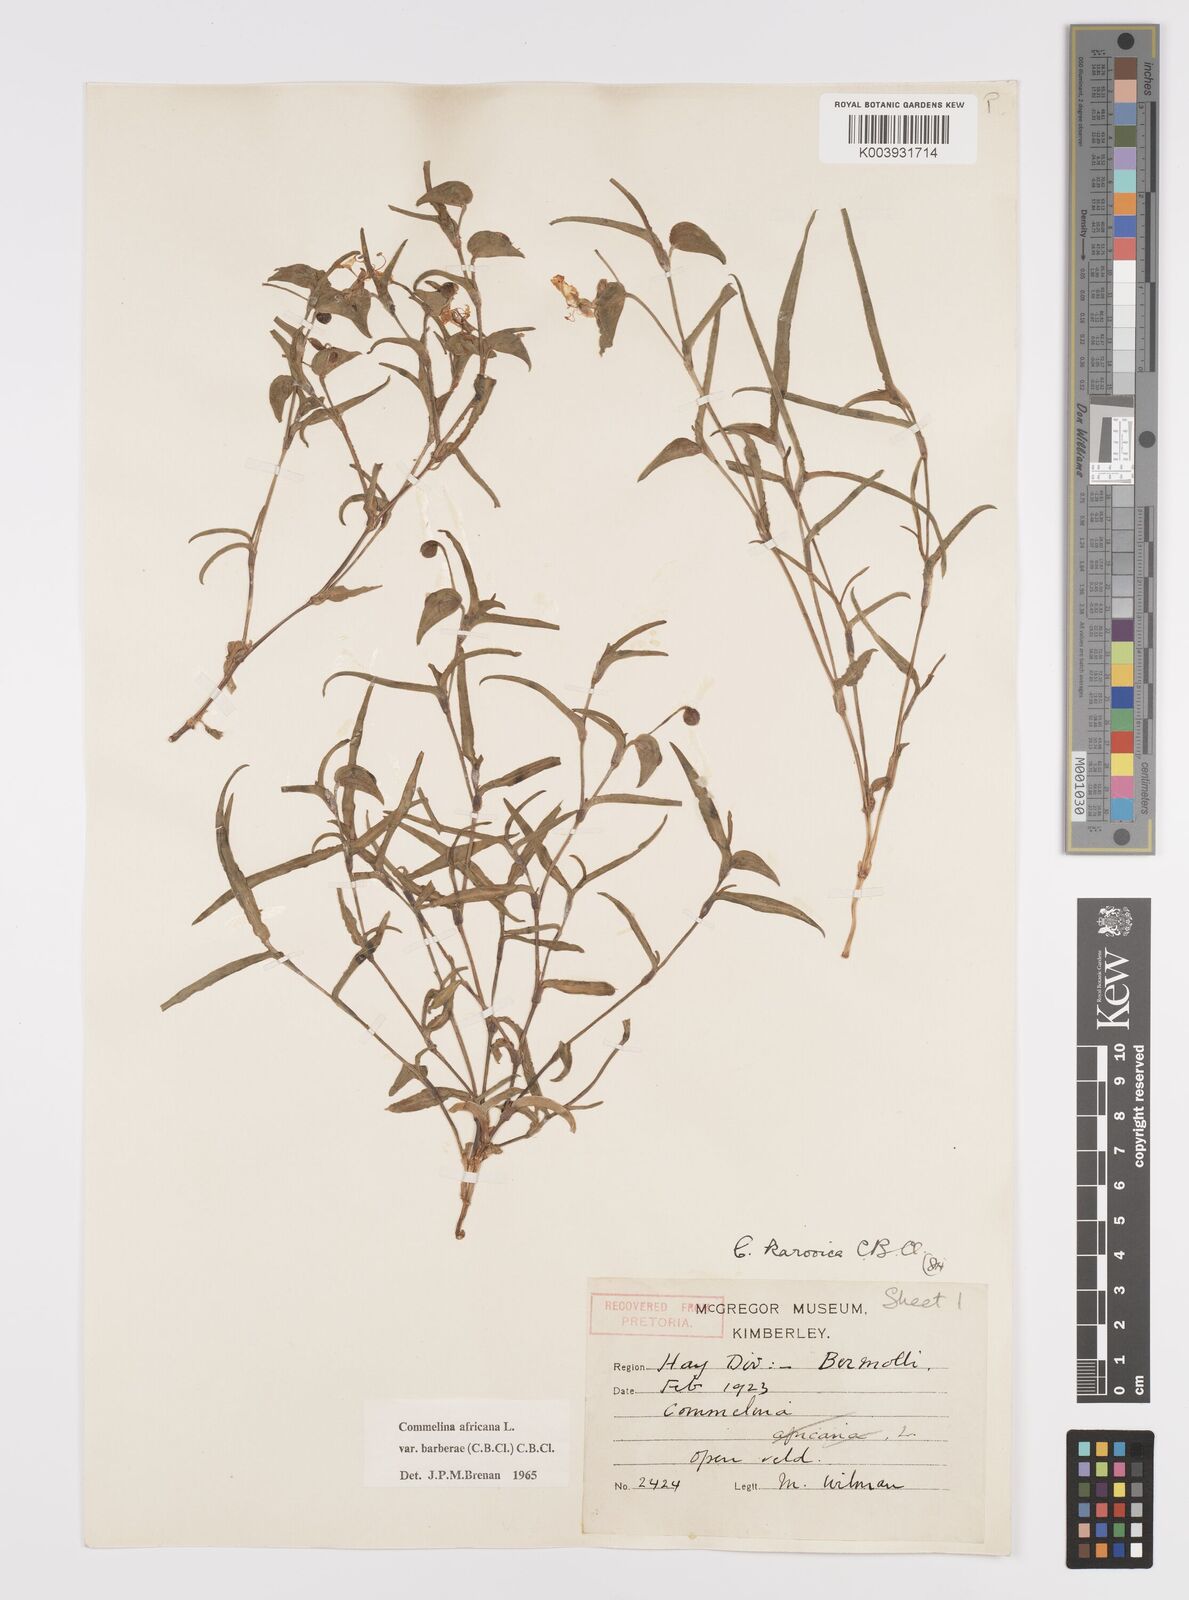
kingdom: Plantae
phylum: Tracheophyta
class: Liliopsida
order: Commelinales
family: Commelinaceae
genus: Commelina
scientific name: Commelina africana
